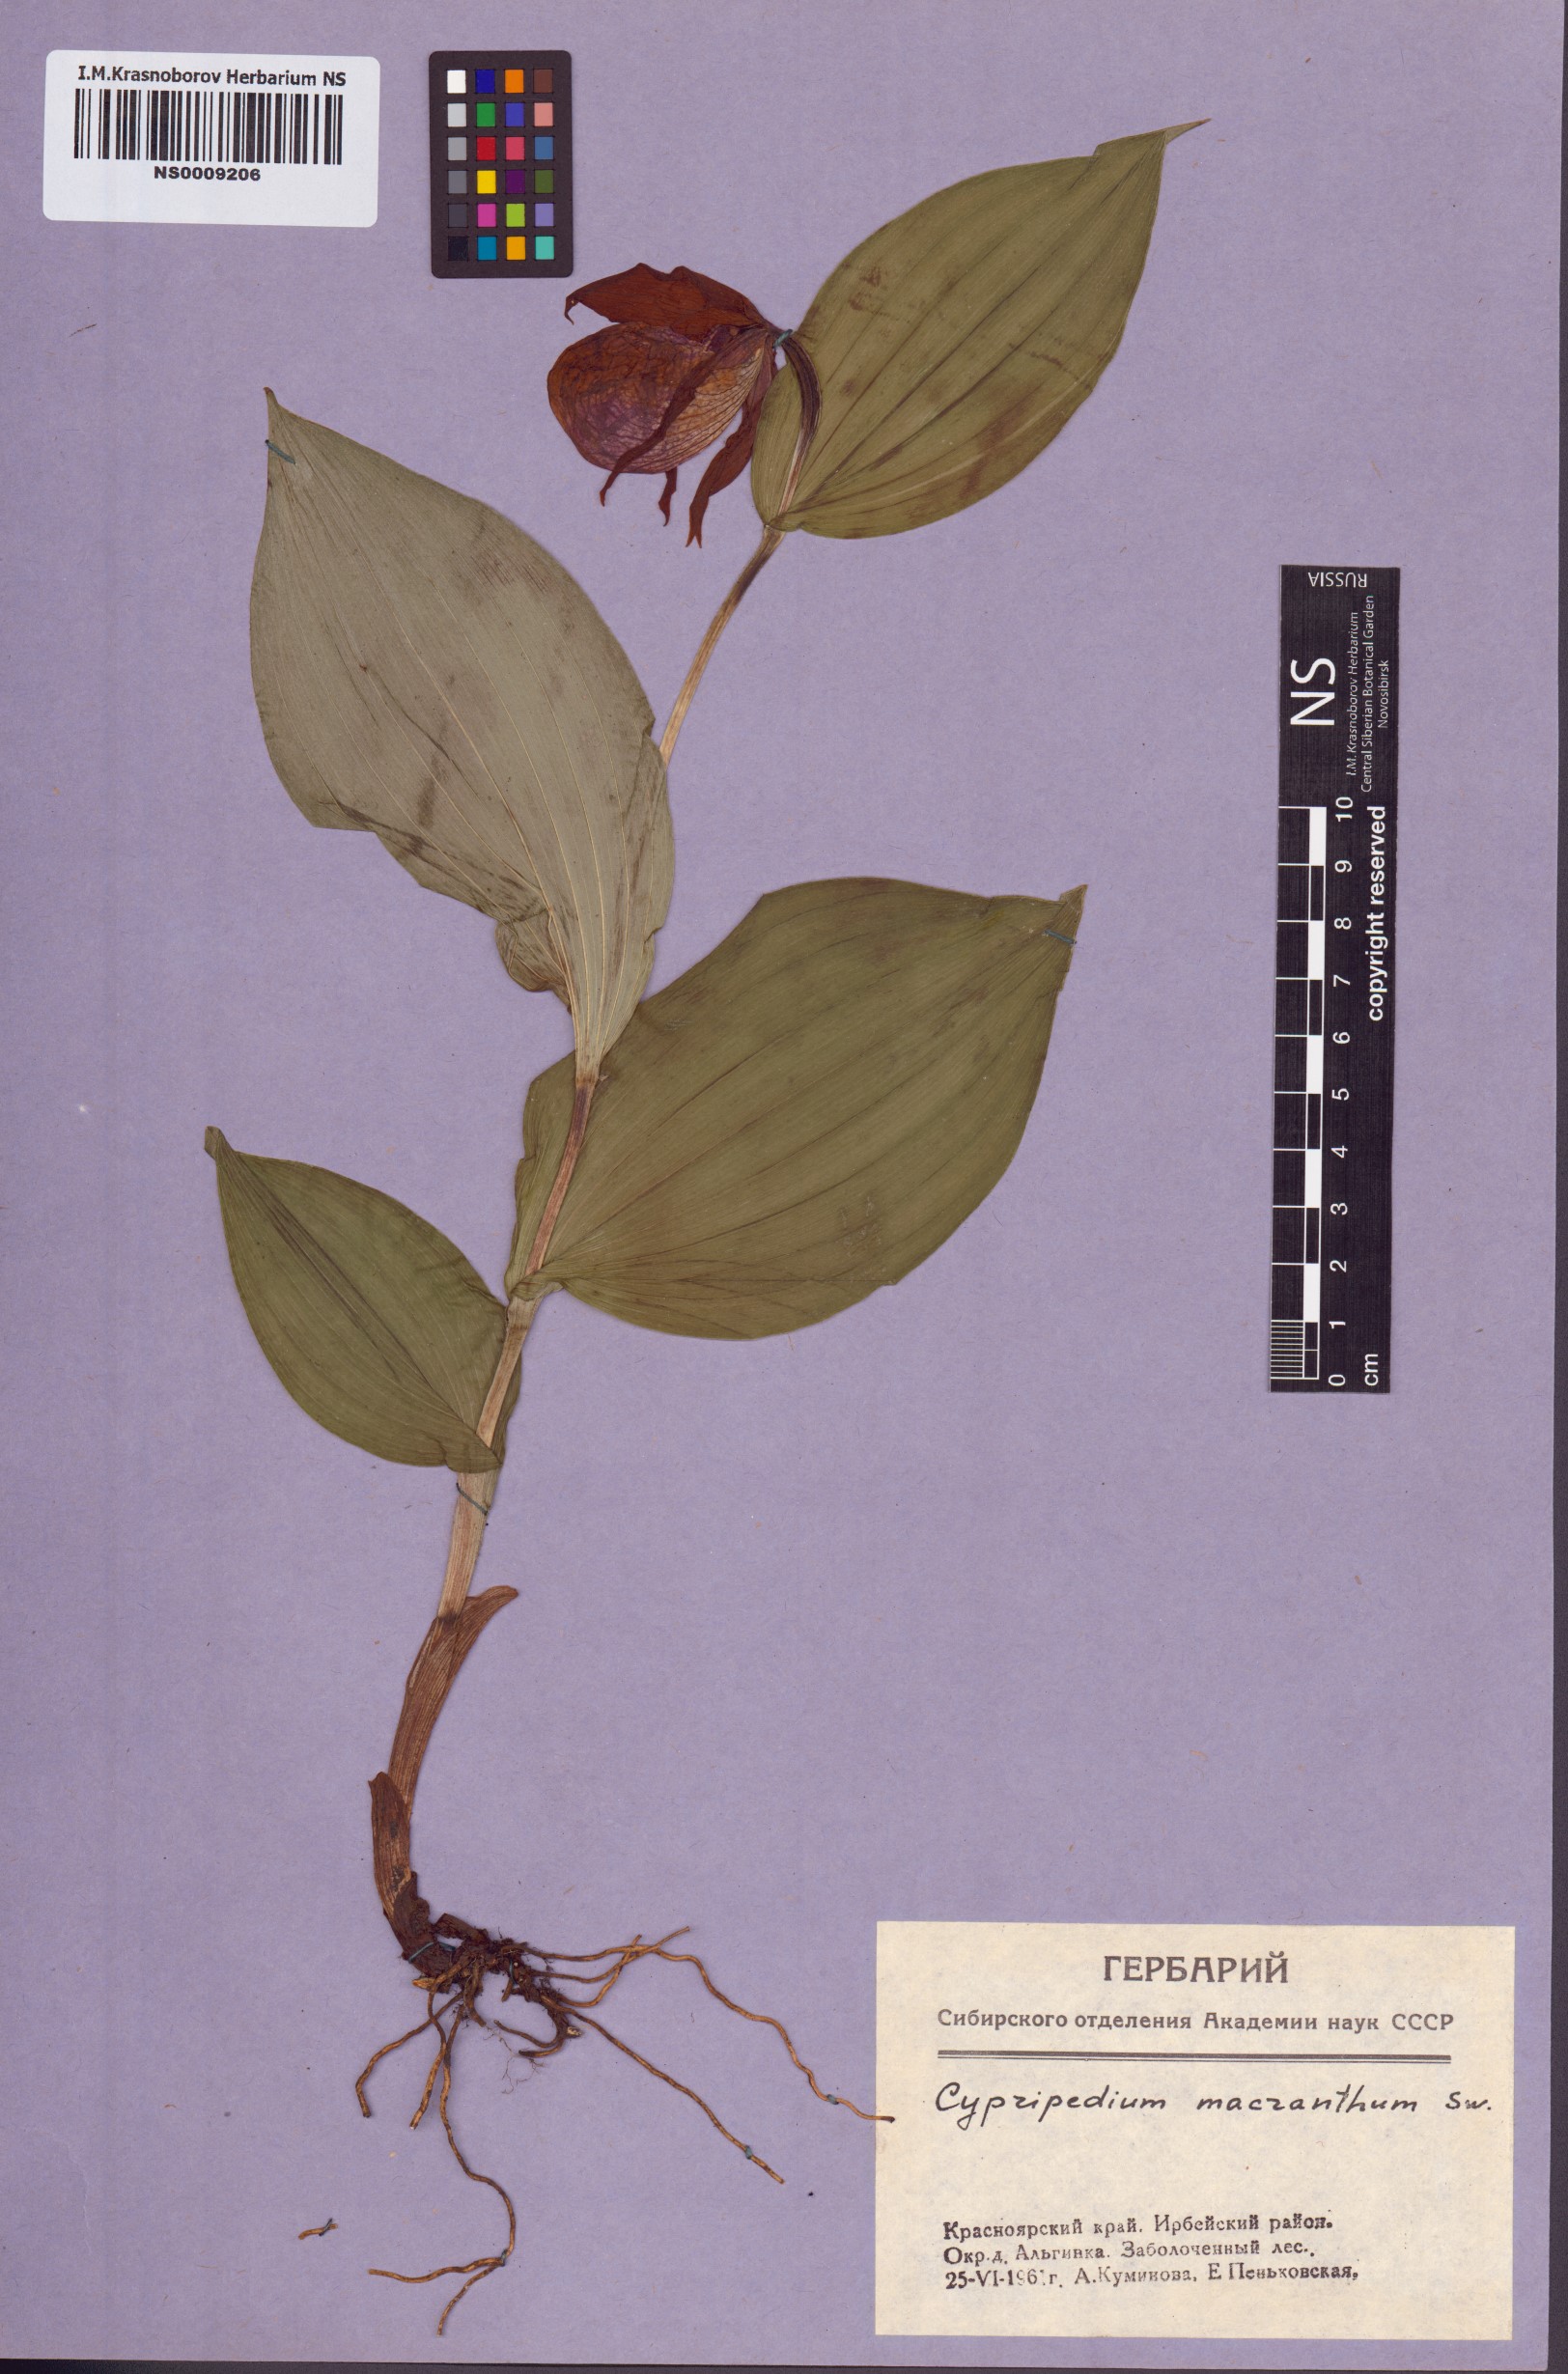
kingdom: Plantae
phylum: Tracheophyta
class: Liliopsida
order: Asparagales
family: Orchidaceae
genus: Cypripedium
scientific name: Cypripedium macranthos
